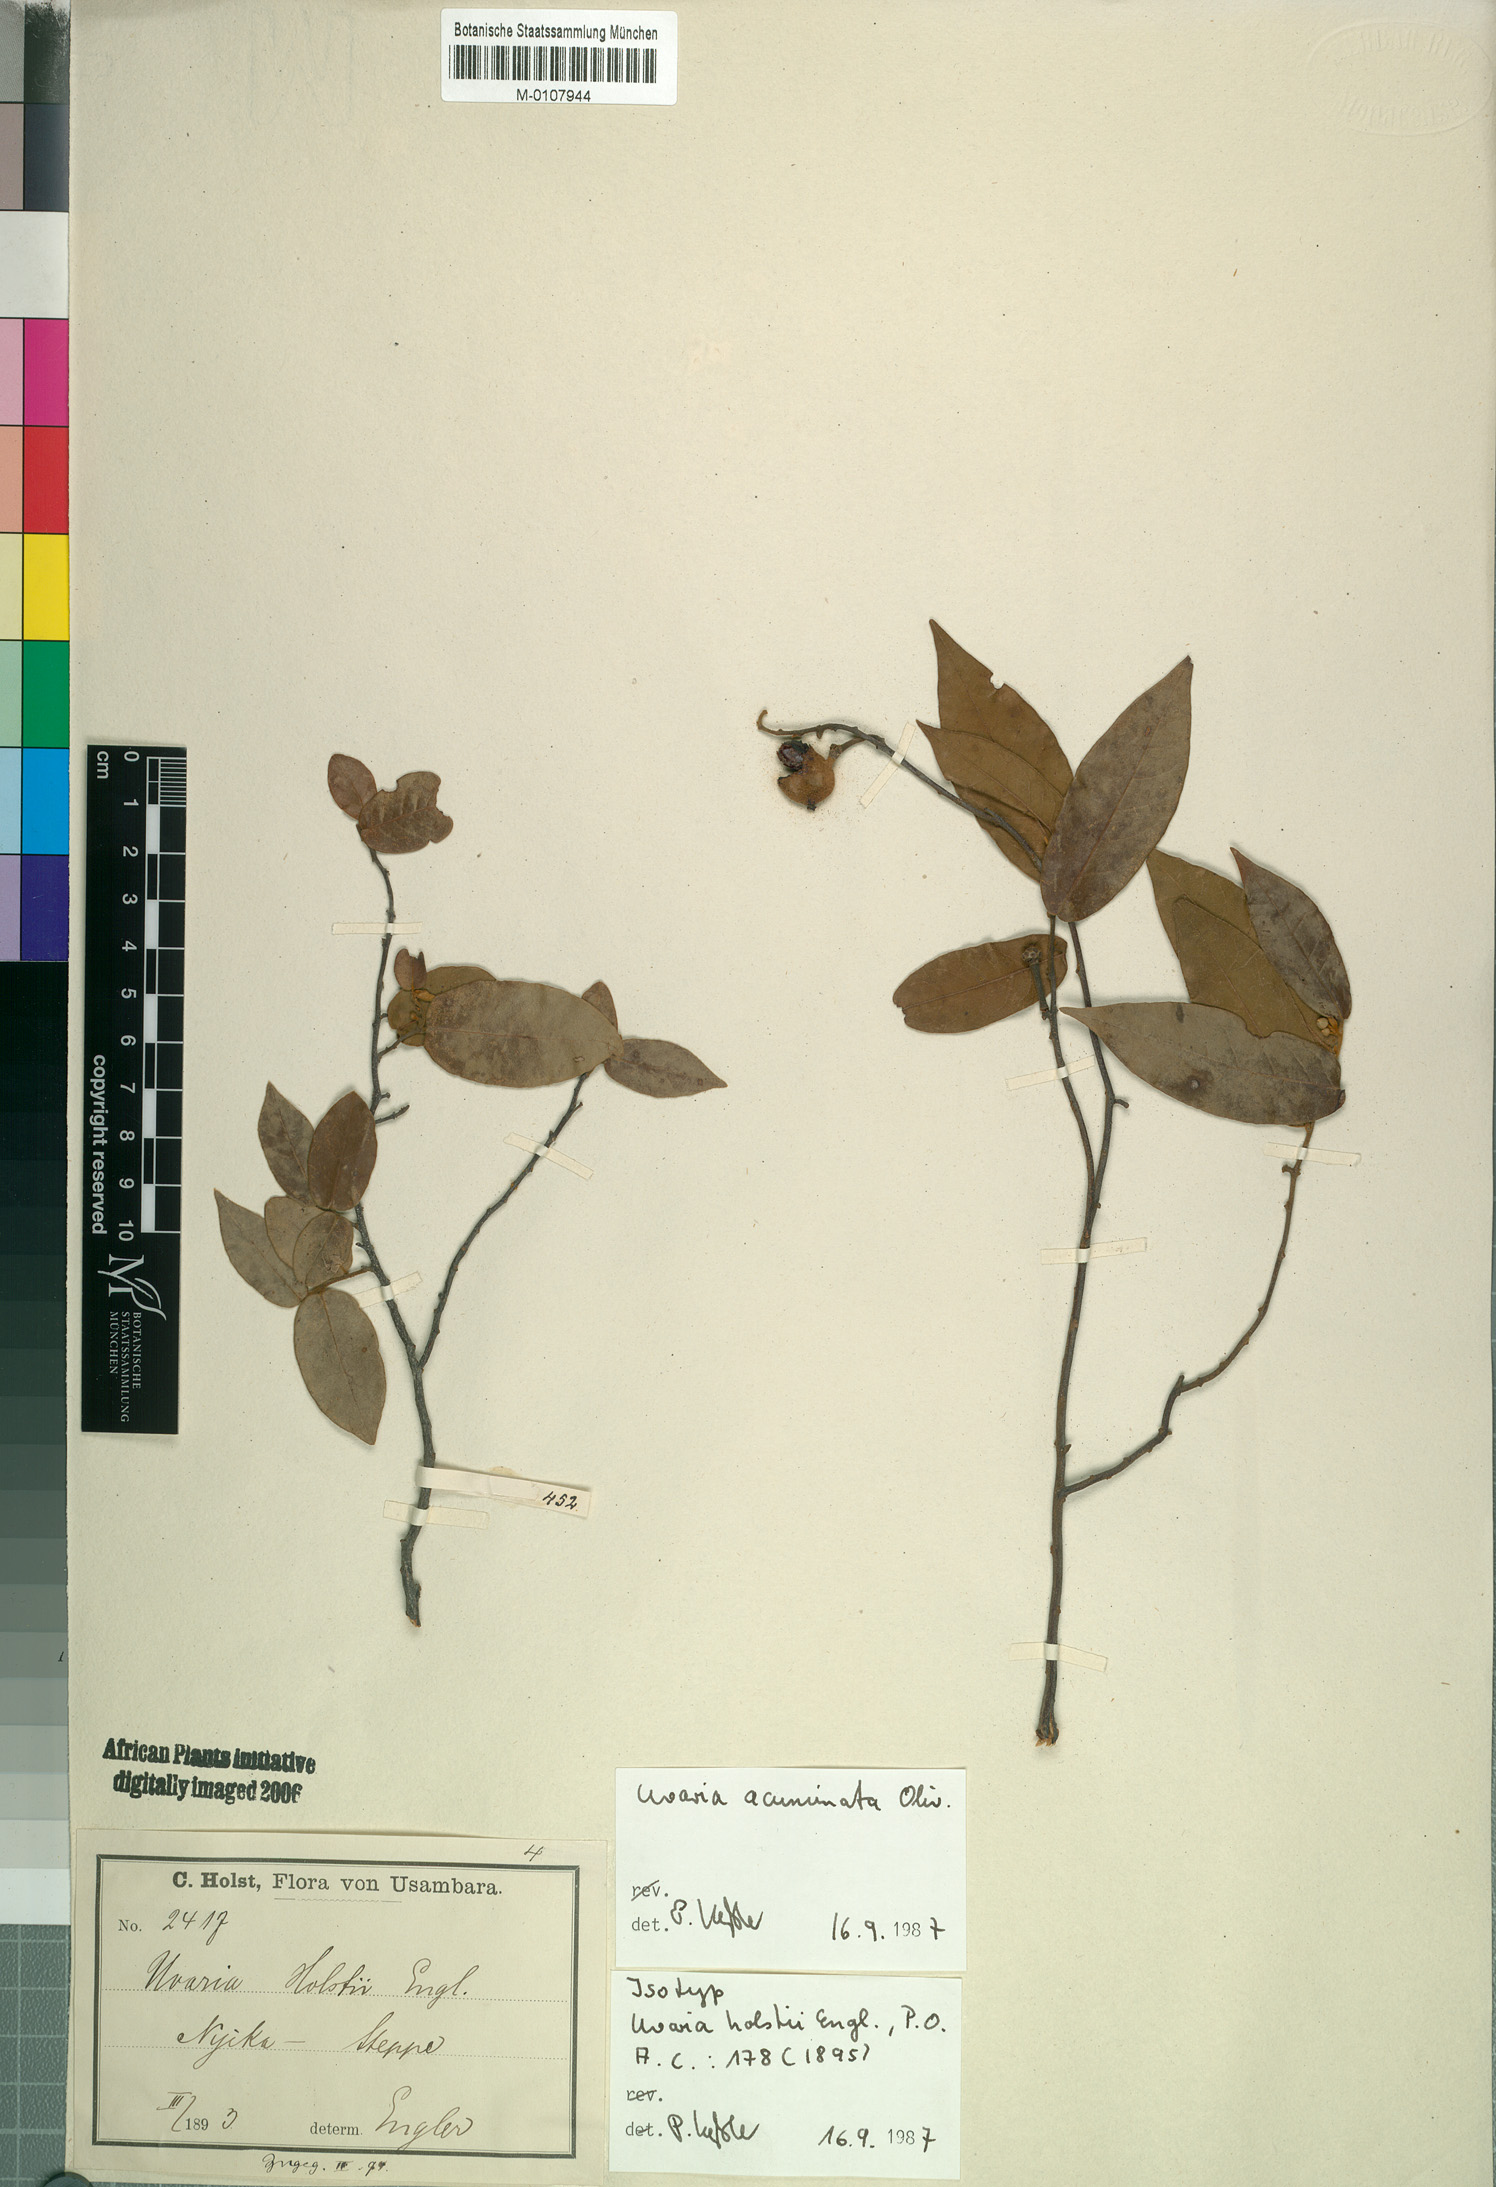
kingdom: Plantae
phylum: Tracheophyta
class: Magnoliopsida
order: Magnoliales
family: Annonaceae
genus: Uvaria
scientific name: Uvaria acuminata
